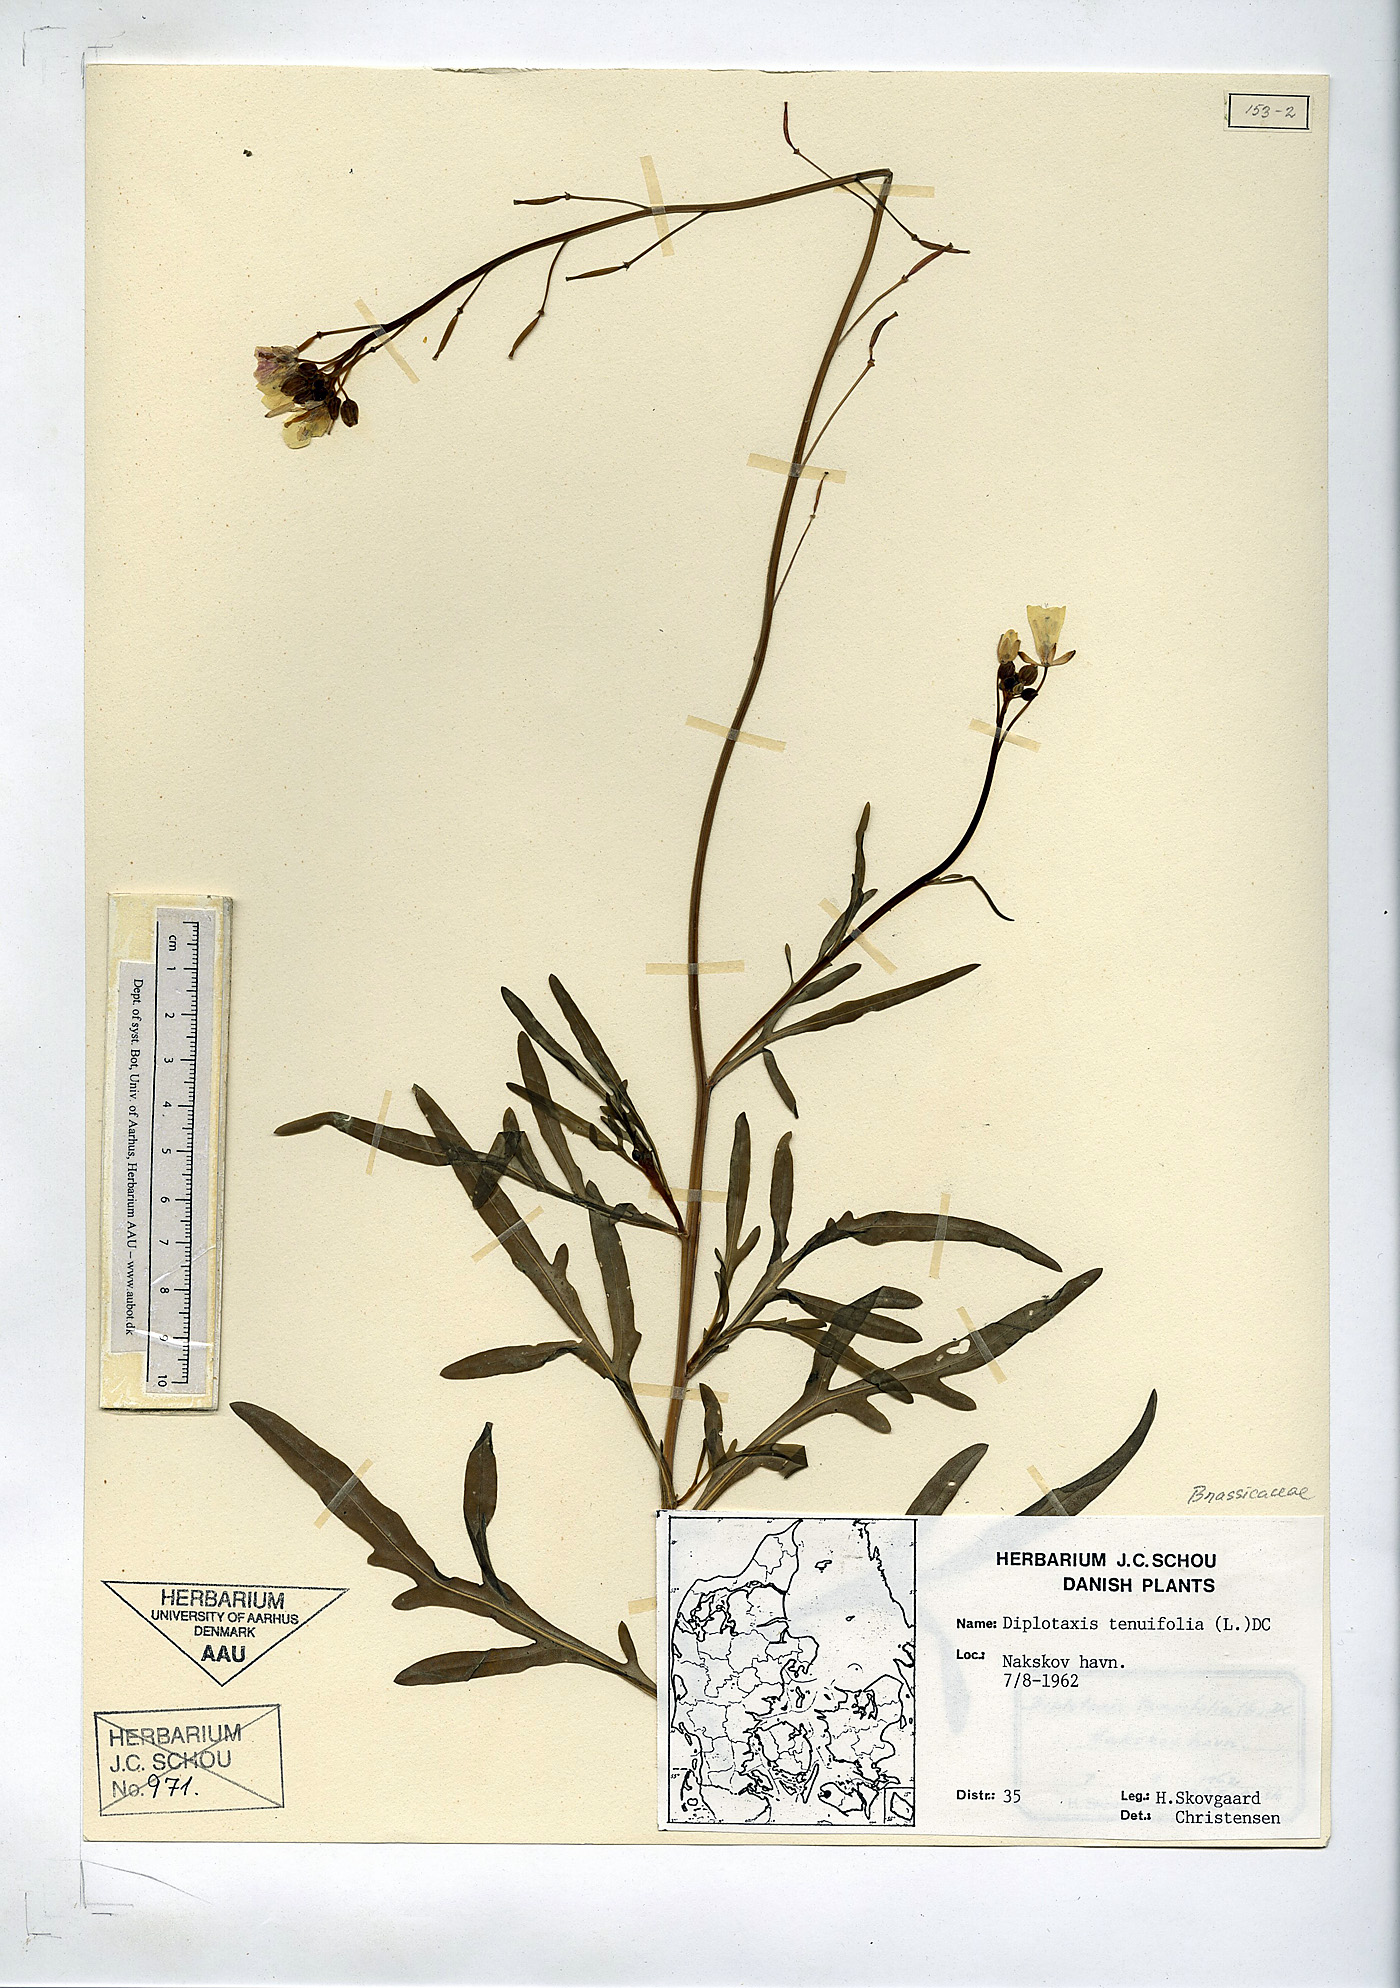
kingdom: Plantae
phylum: Tracheophyta
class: Magnoliopsida
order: Brassicales
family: Brassicaceae
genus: Diplotaxis
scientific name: Diplotaxis tenuifolia
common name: Perennial wall-rocket
